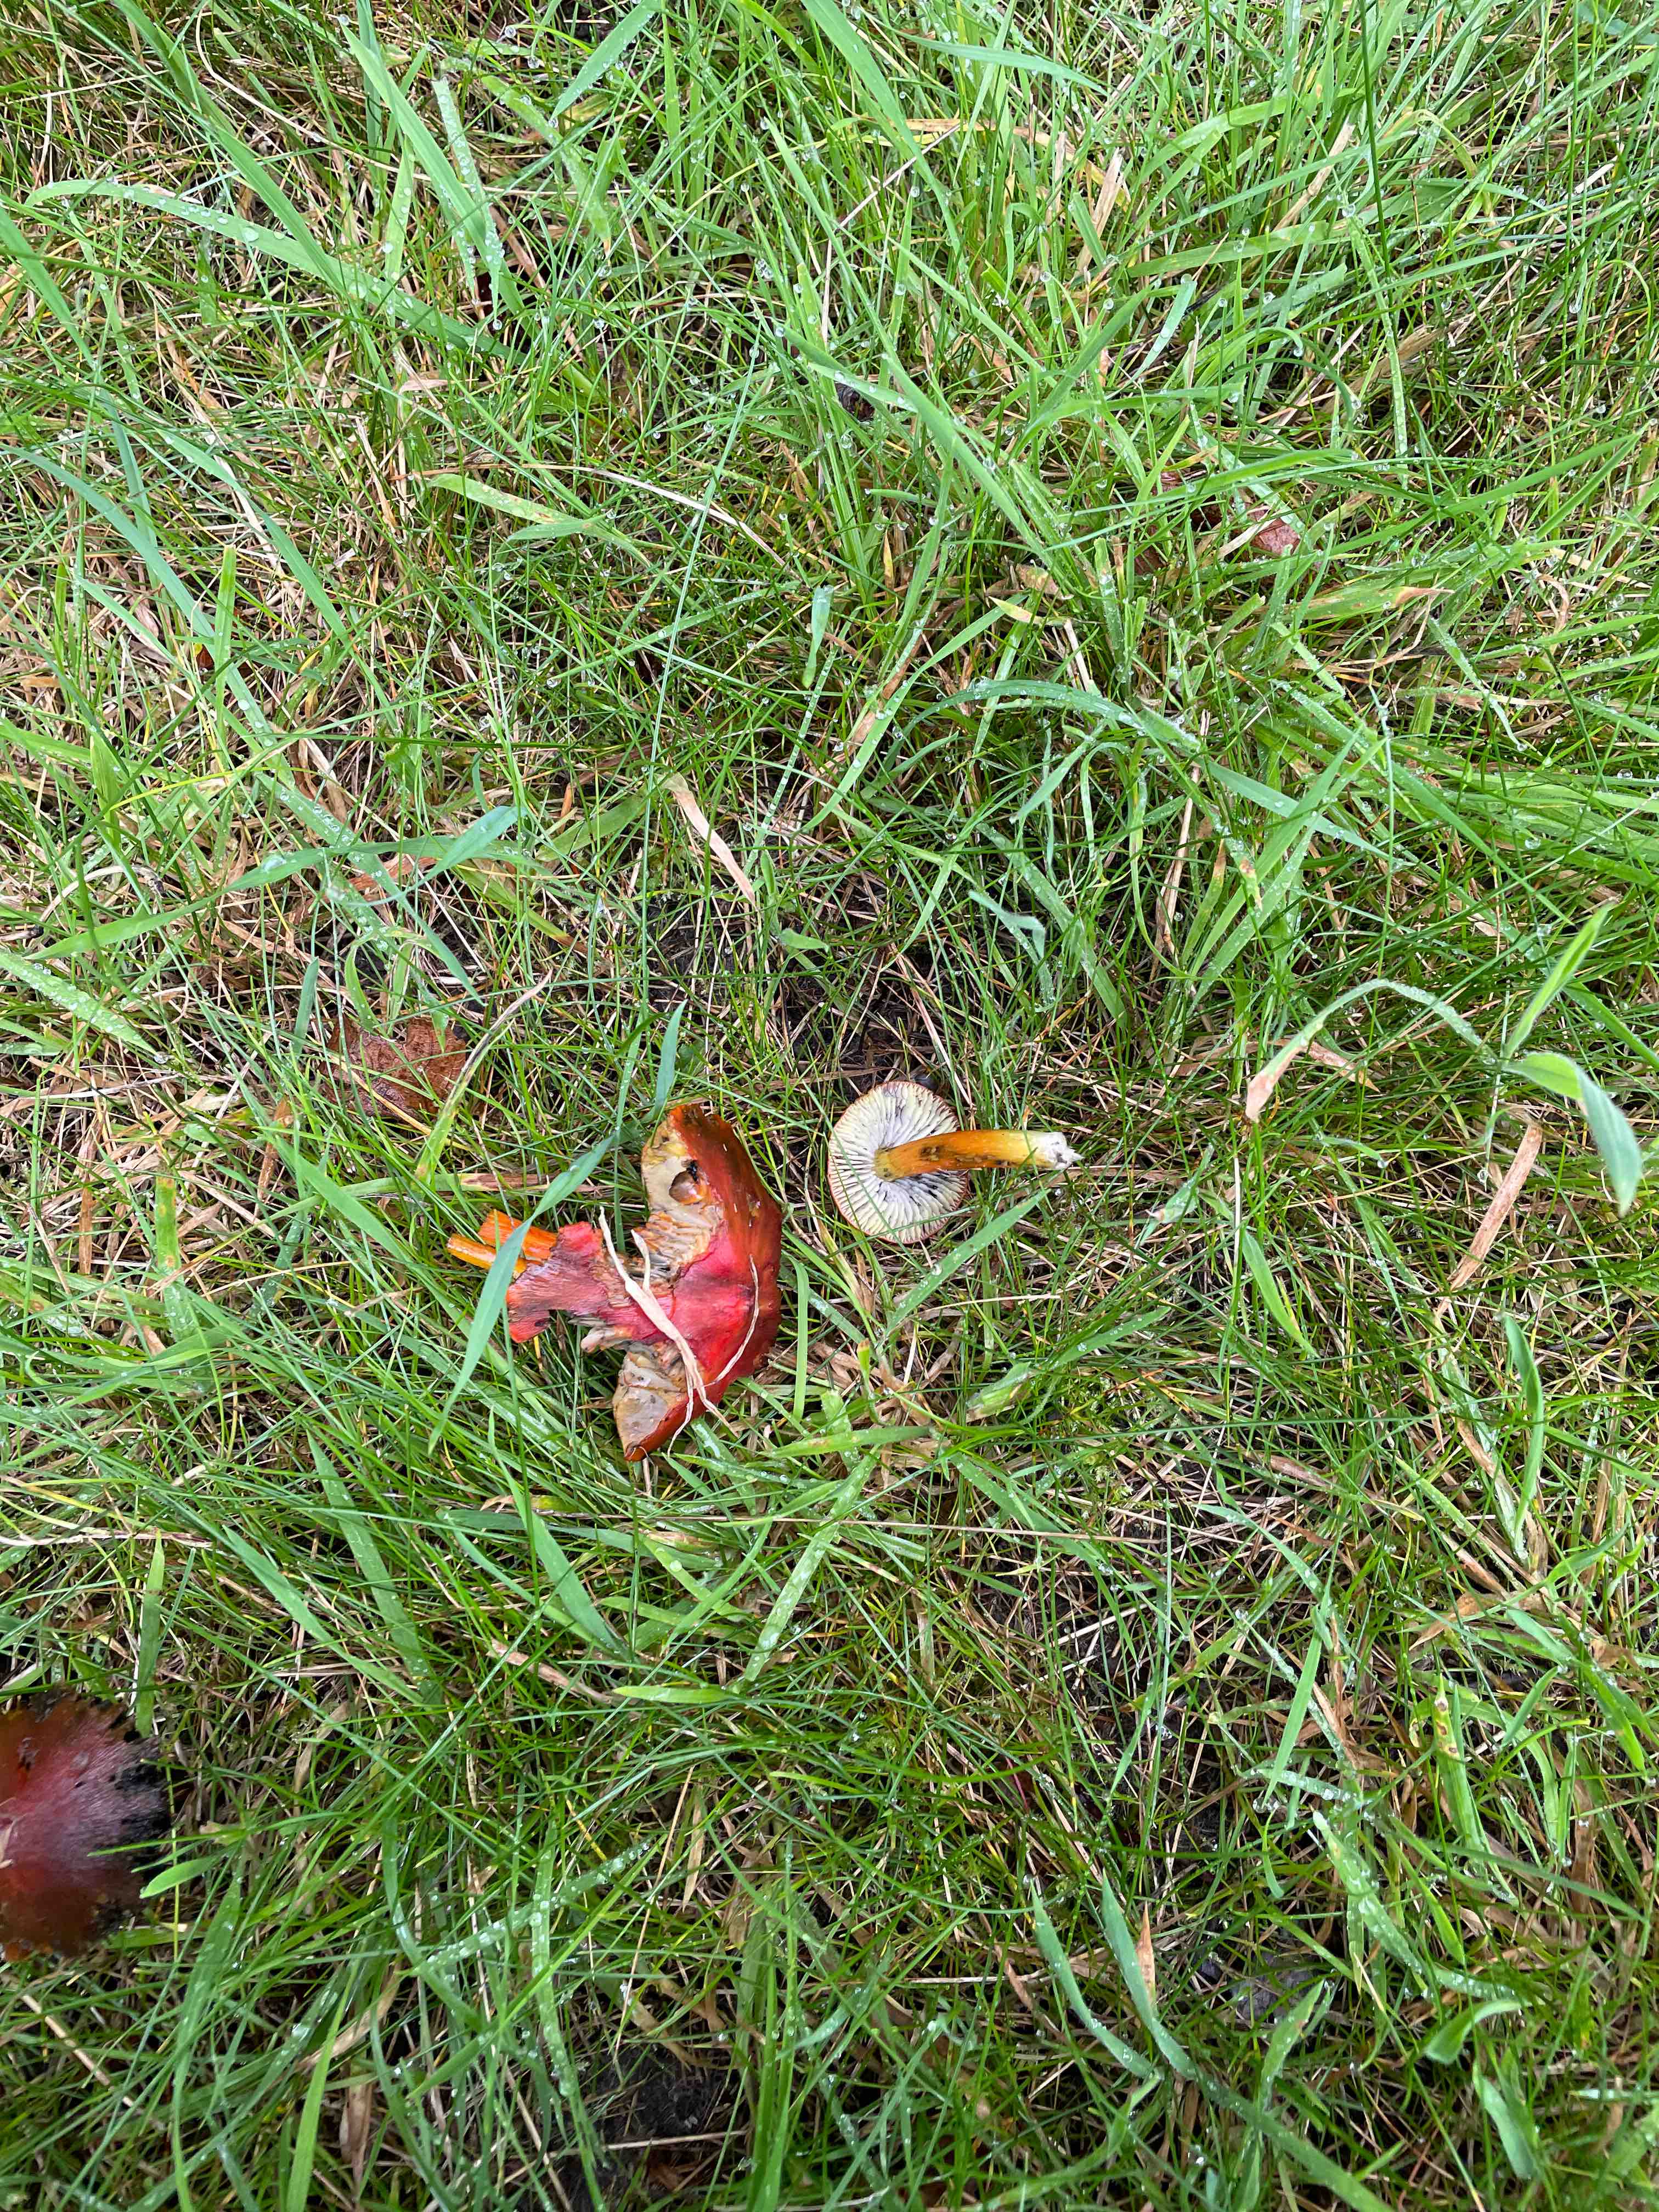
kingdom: Fungi
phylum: Basidiomycota
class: Agaricomycetes
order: Agaricales
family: Hygrophoraceae
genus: Hygrocybe
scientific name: Hygrocybe conica
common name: kegle-vokshat
